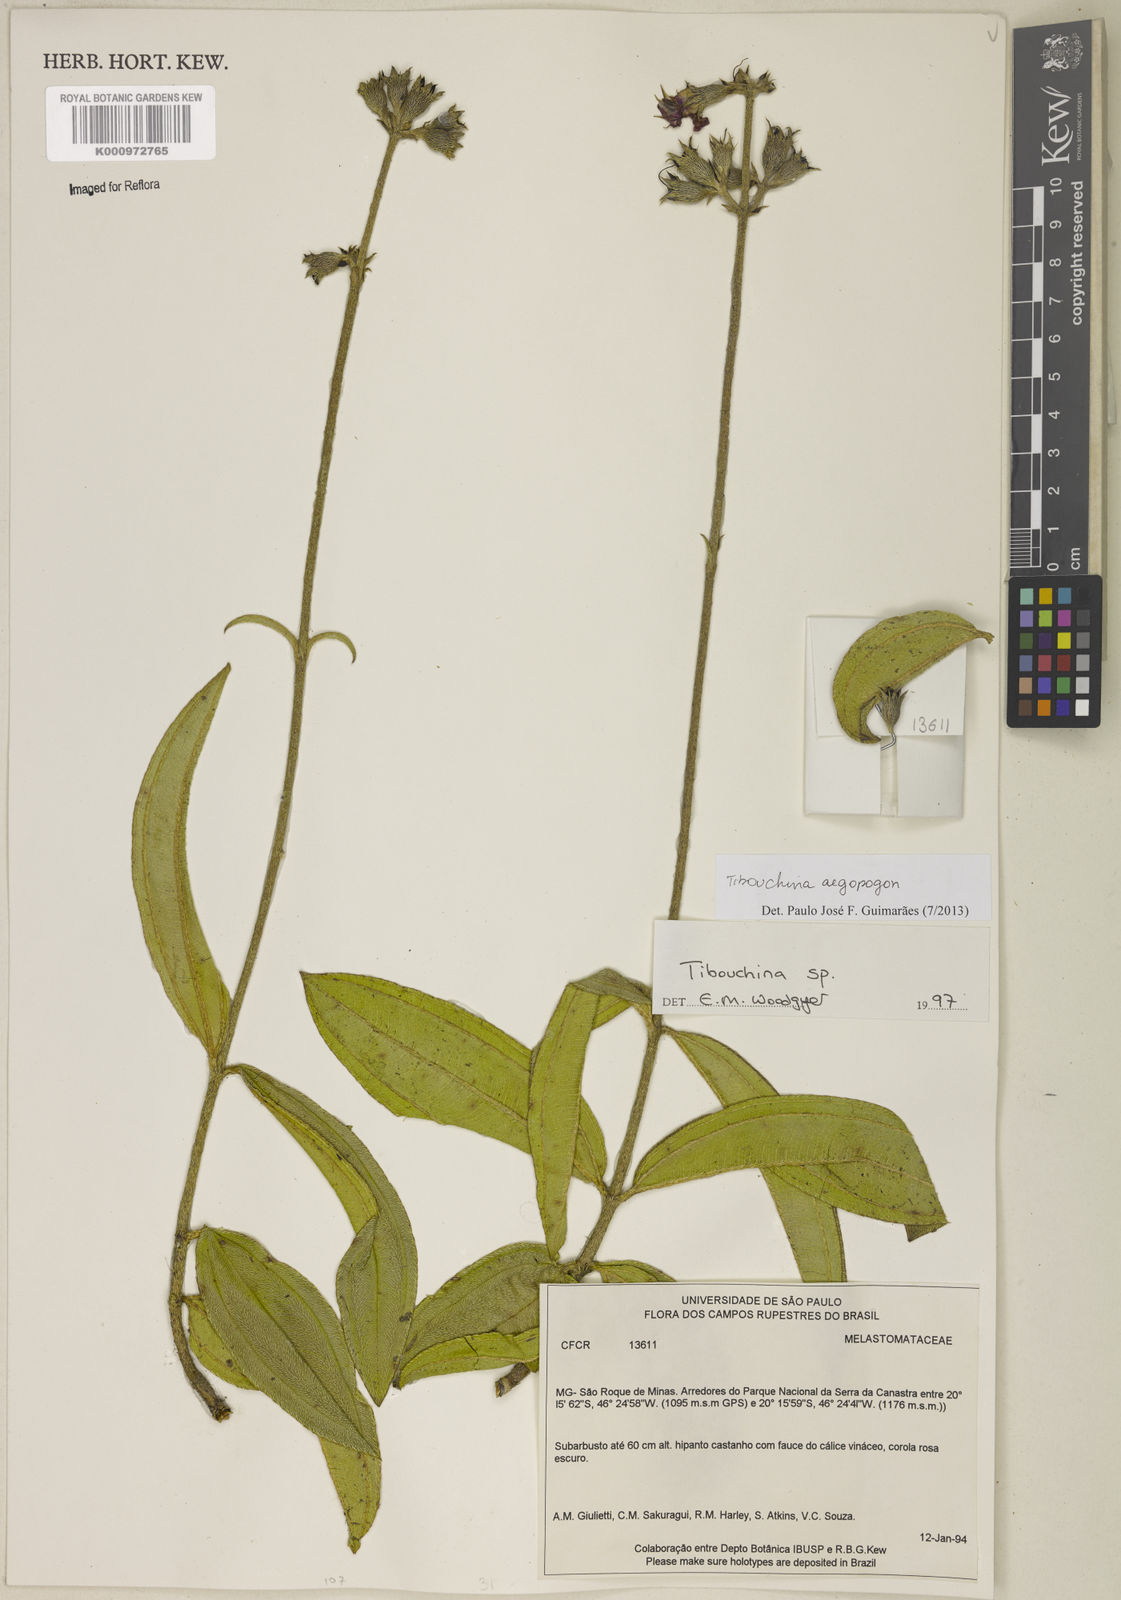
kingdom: Plantae
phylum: Tracheophyta
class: Magnoliopsida
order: Myrtales
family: Melastomataceae
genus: Pleroma
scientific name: Pleroma aegopogon
